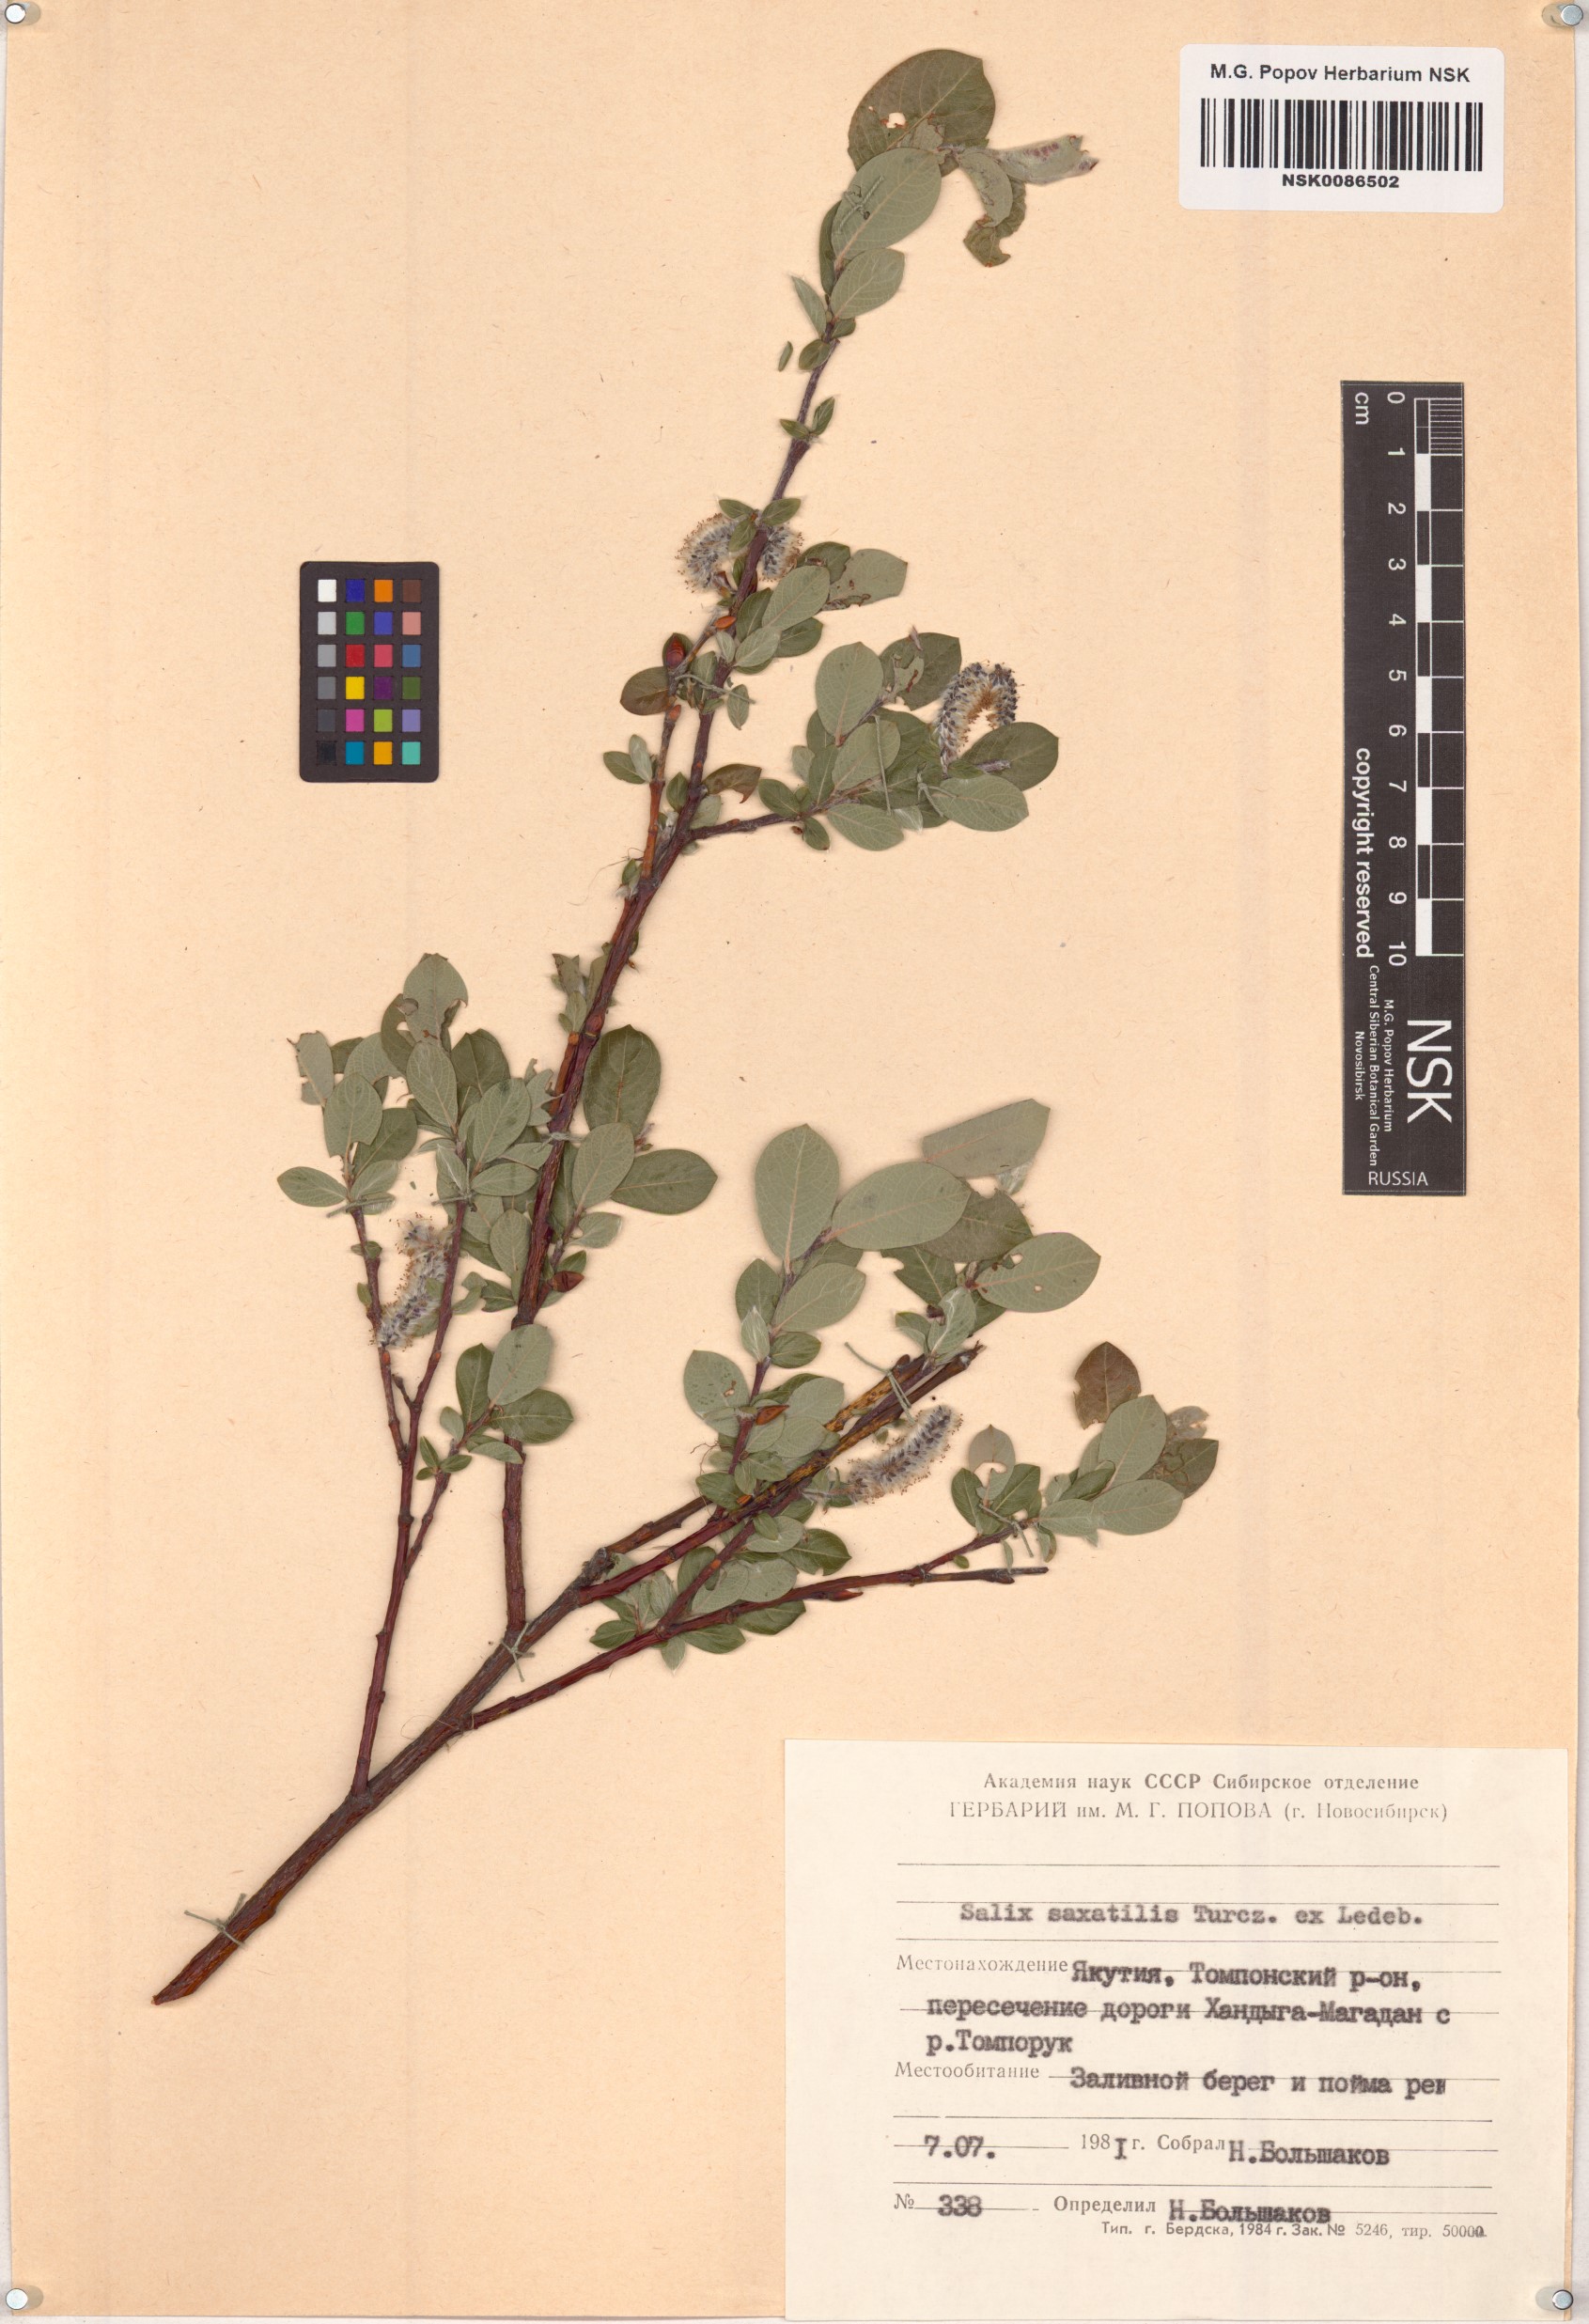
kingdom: Plantae
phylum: Tracheophyta
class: Magnoliopsida
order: Malpighiales
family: Salicaceae
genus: Salix
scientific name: Salix saxatilis
